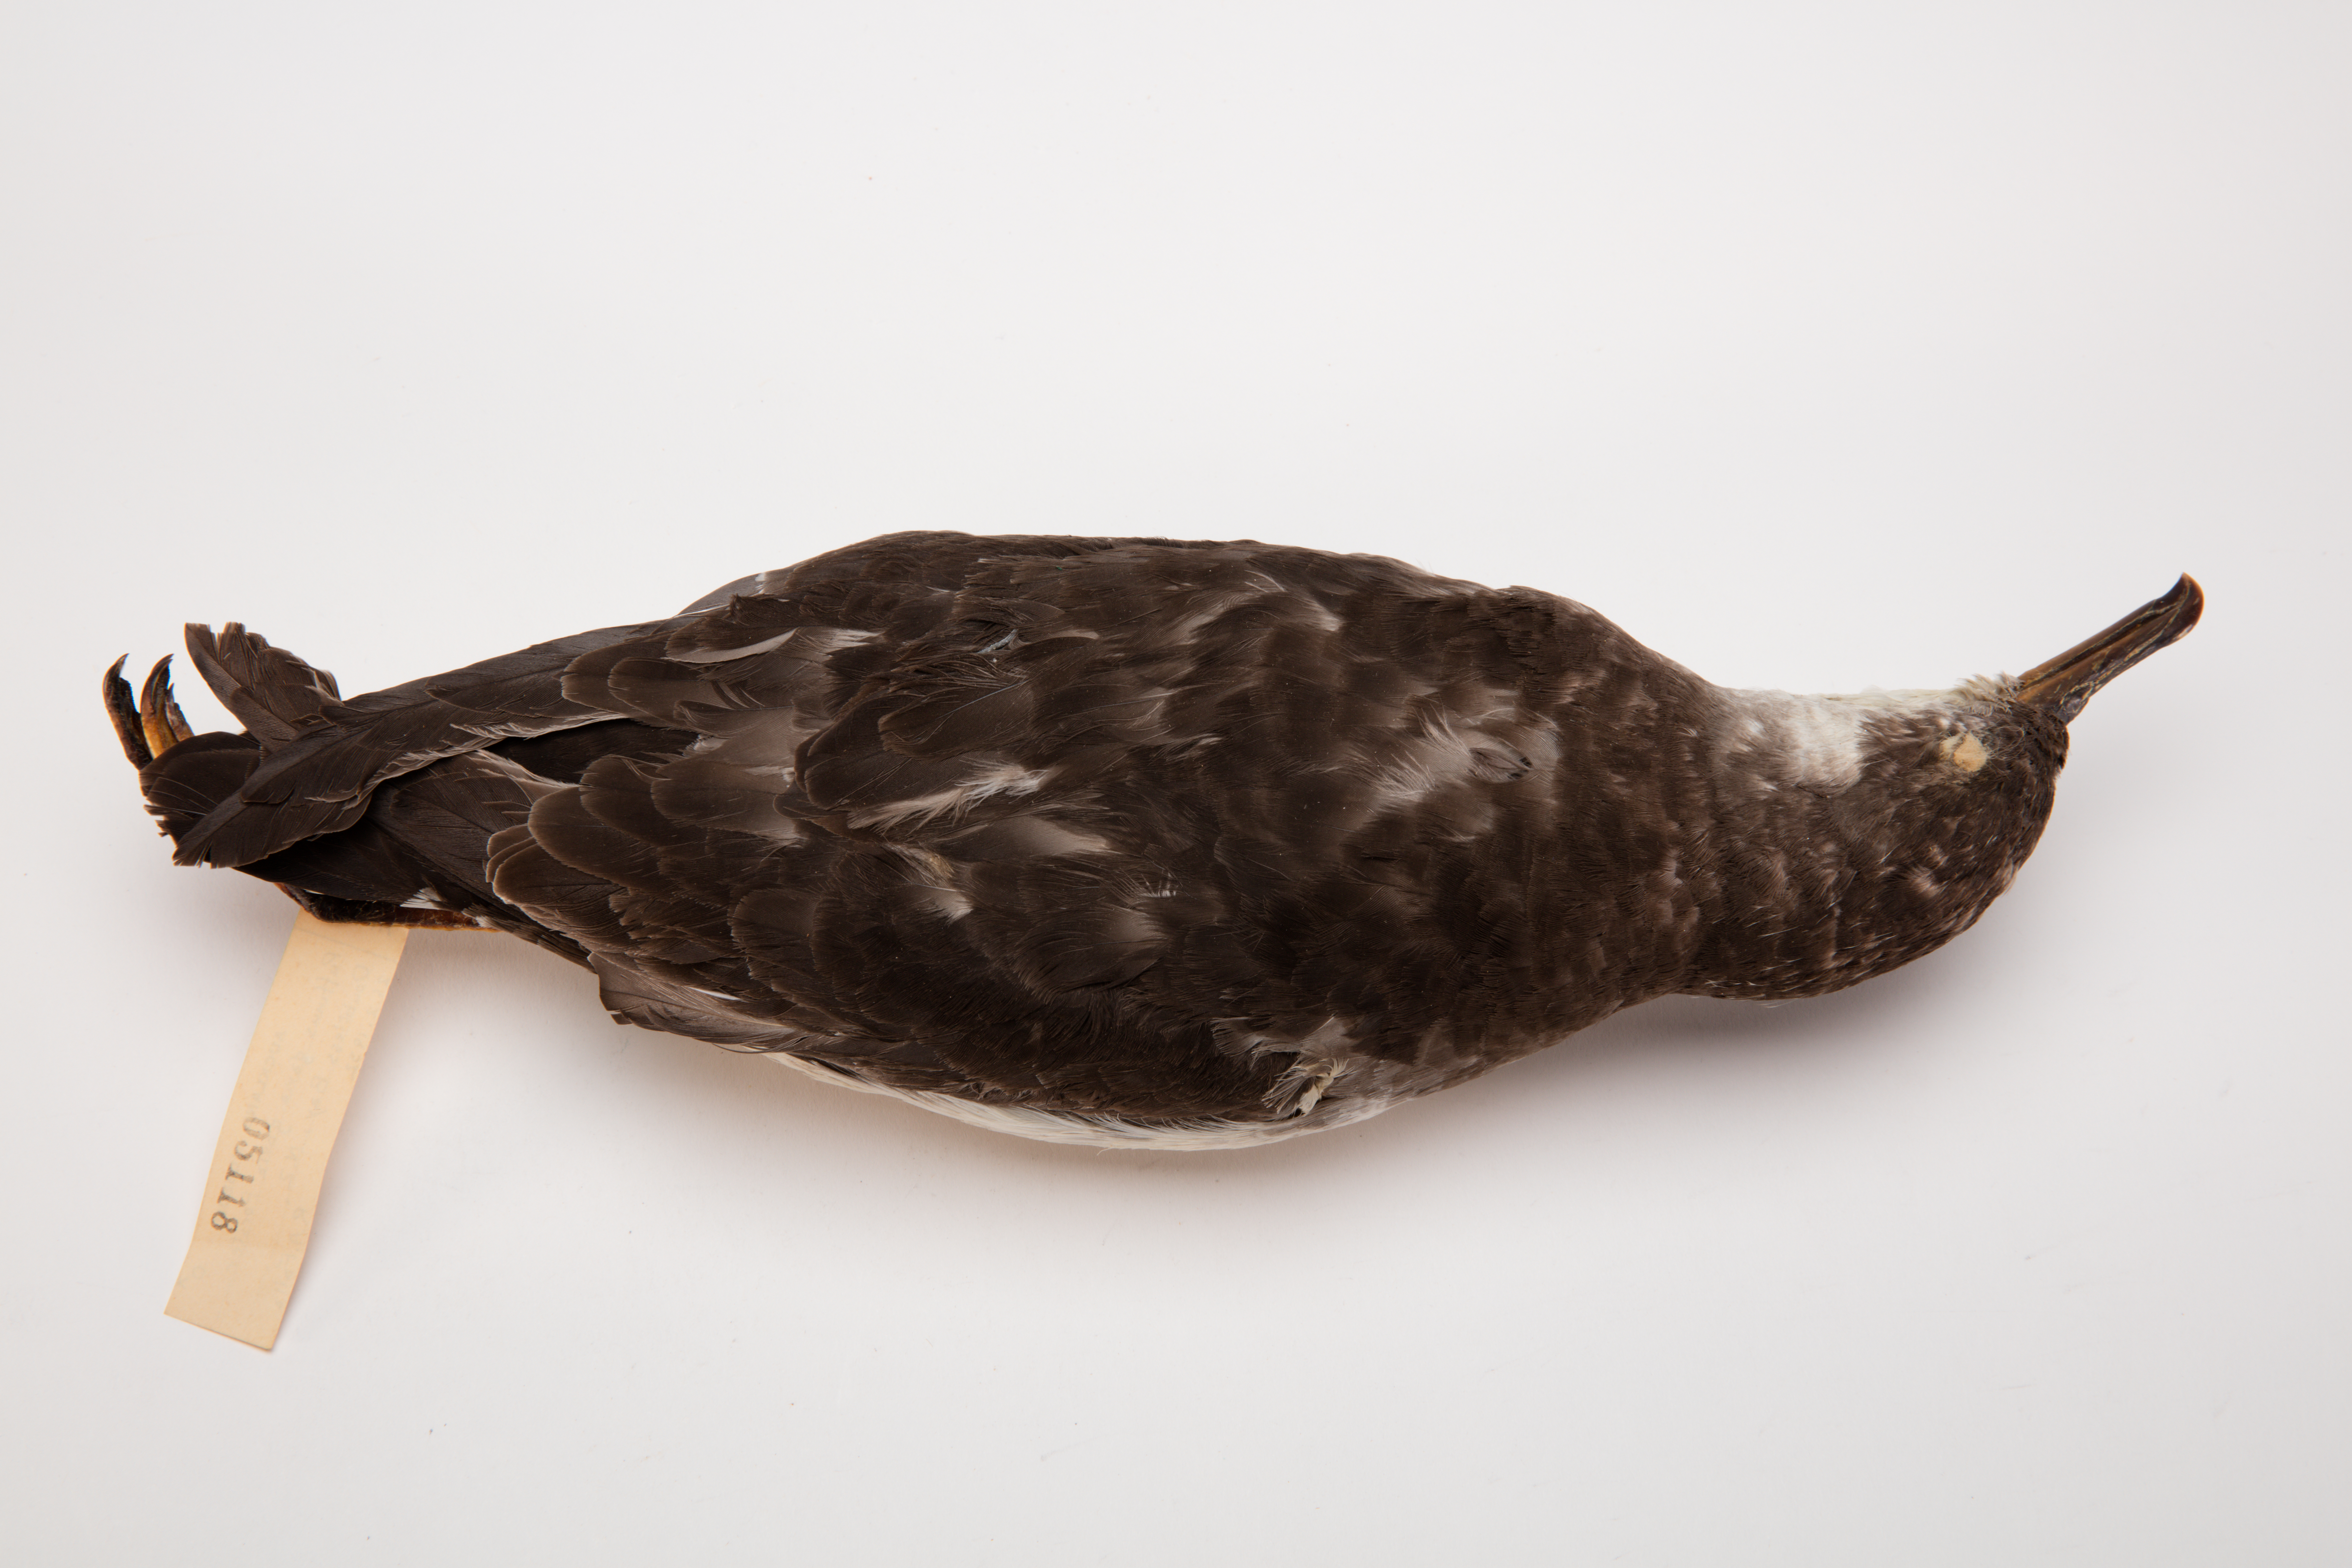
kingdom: Animalia
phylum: Chordata
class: Aves
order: Procellariiformes
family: Procellariidae
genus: Ardenna
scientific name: Ardenna
